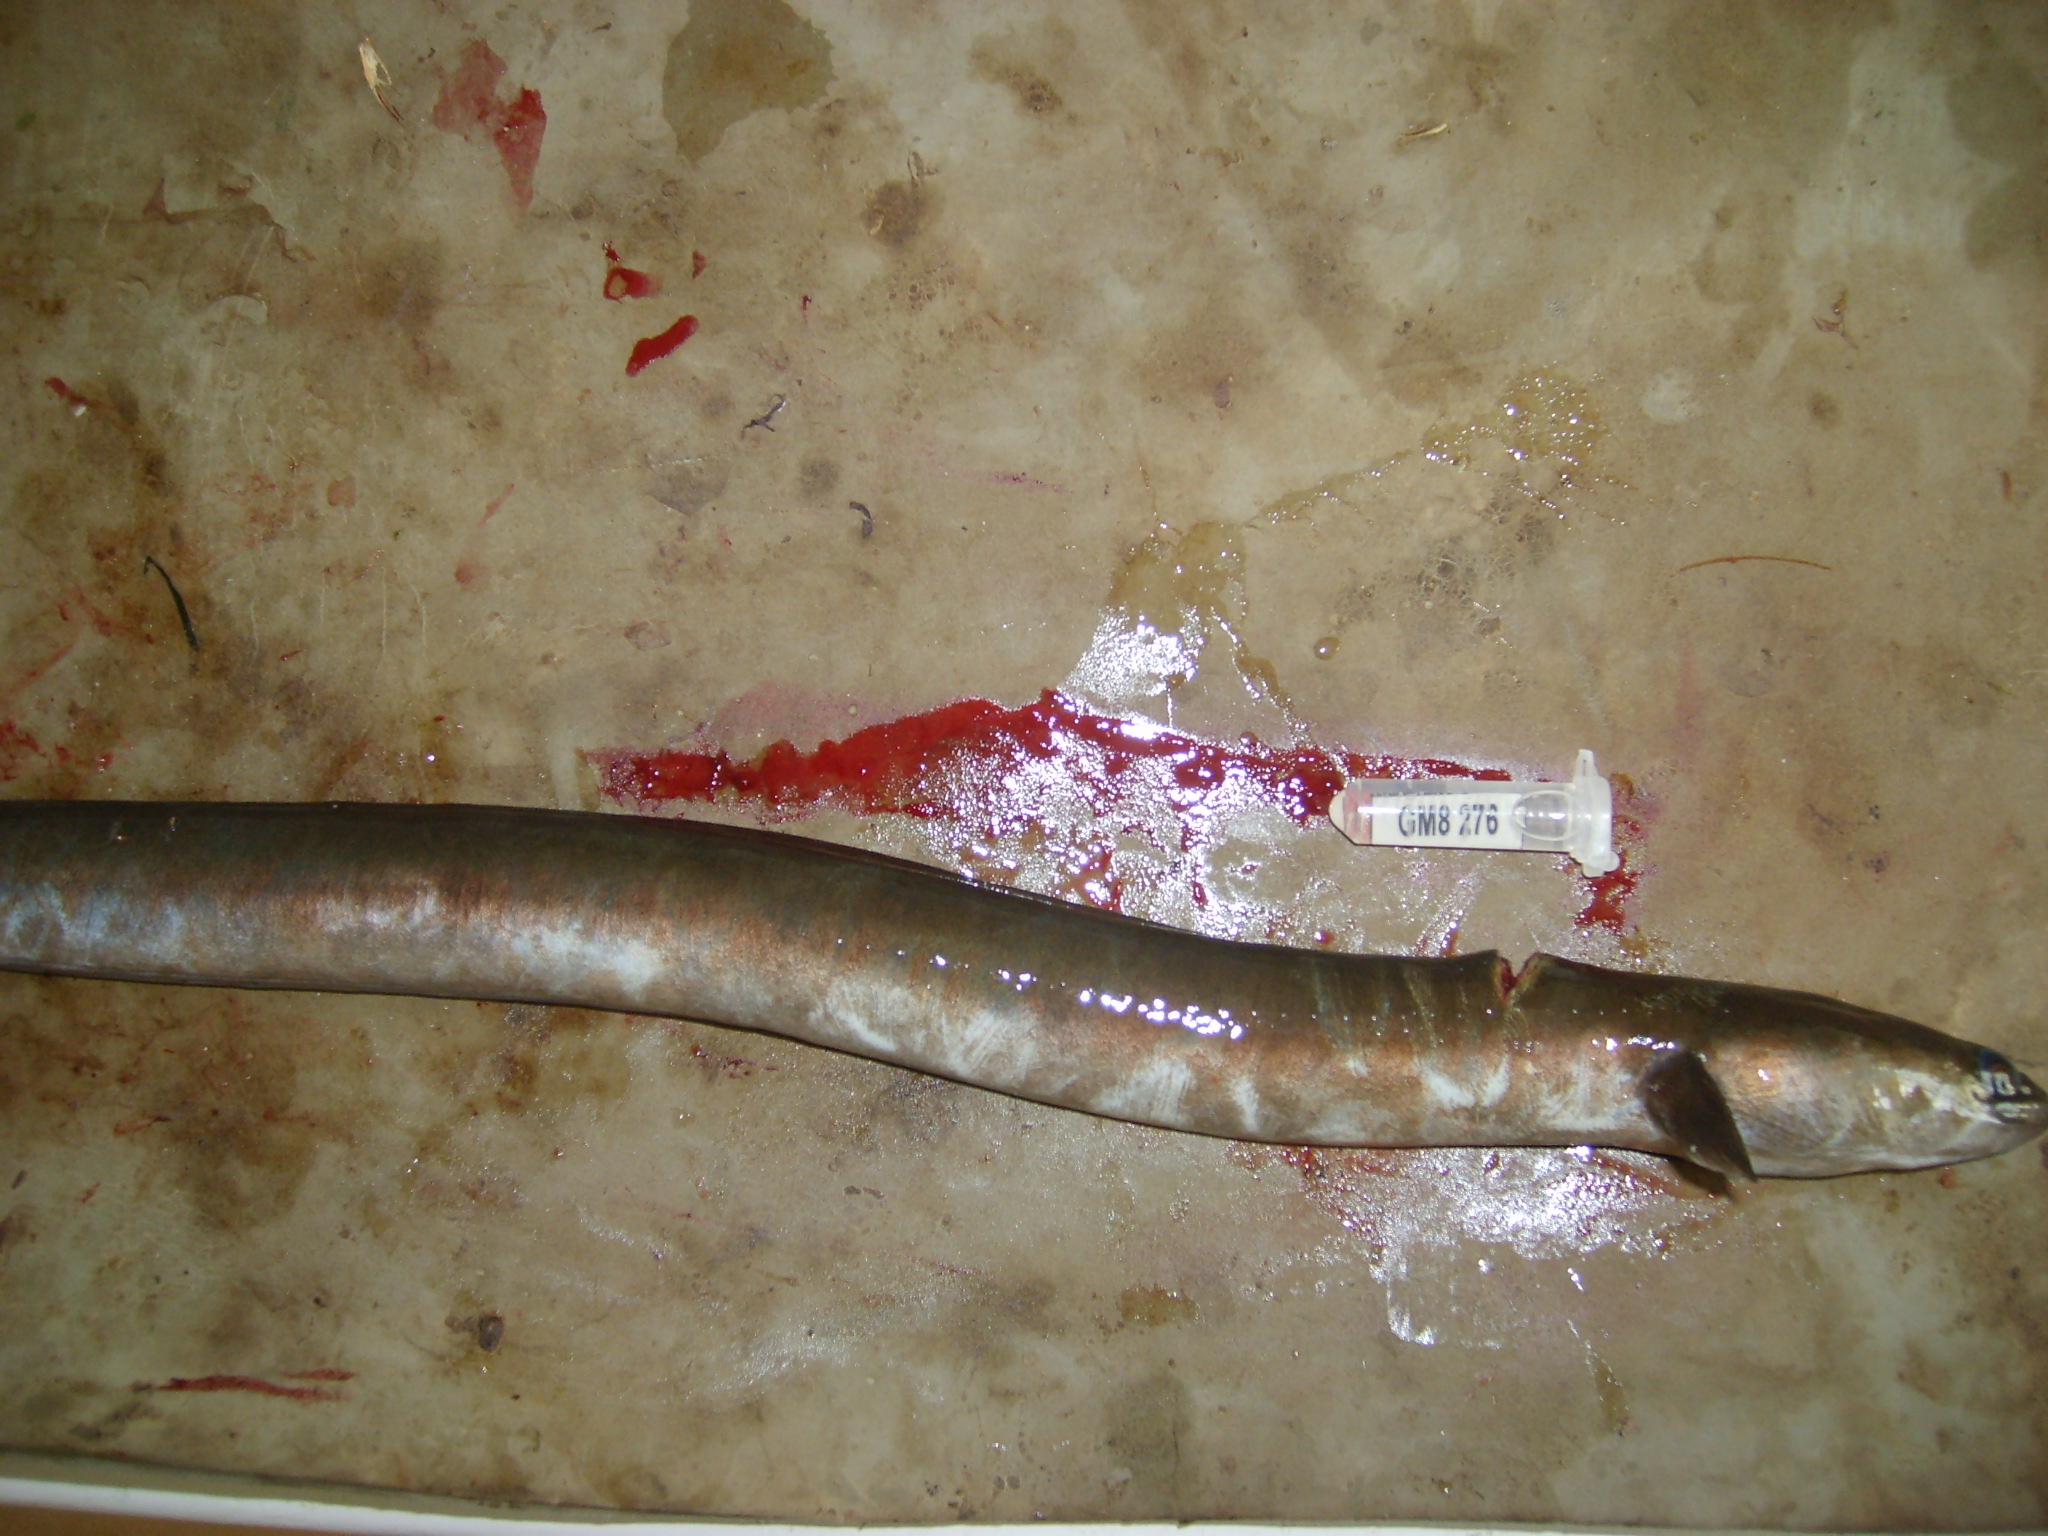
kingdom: Animalia
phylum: Chordata
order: Anguilliformes
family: Anguillidae
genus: Anguilla
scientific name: Anguilla mossambica
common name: African longfin eel
